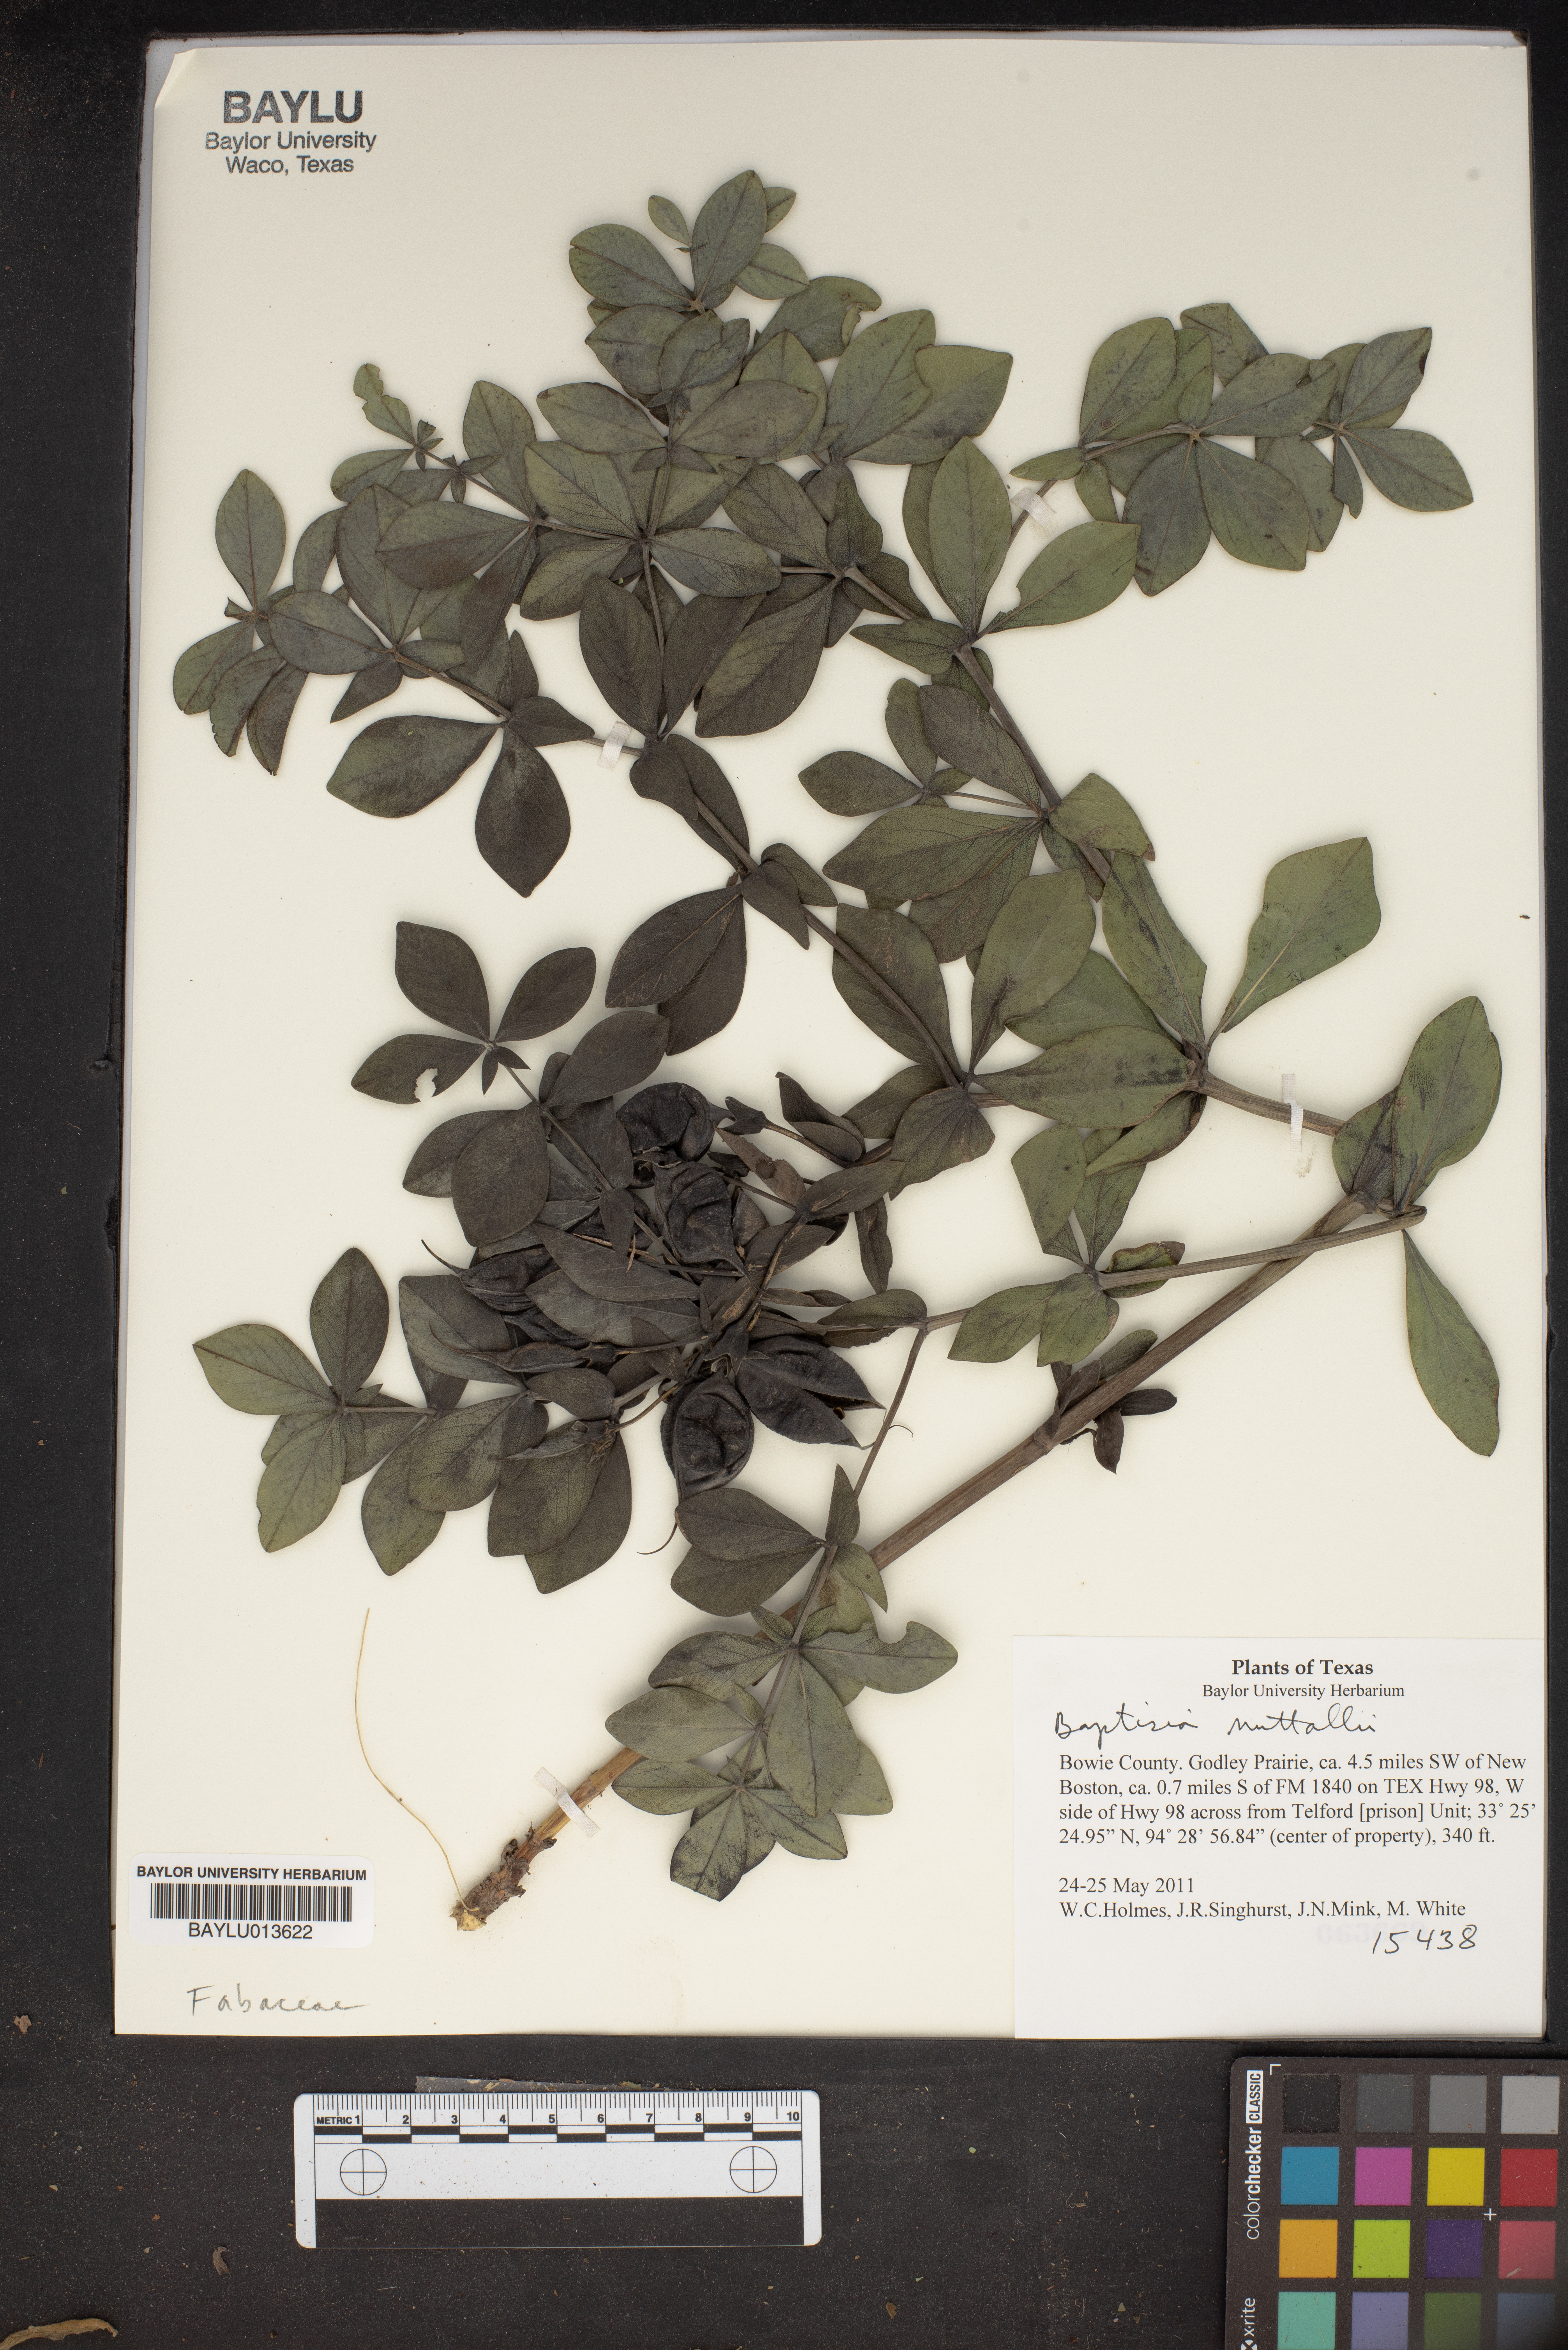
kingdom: Plantae
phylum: Tracheophyta
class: Magnoliopsida
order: Fabales
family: Fabaceae
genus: Baptisia
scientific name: Baptisia nuttalliana
